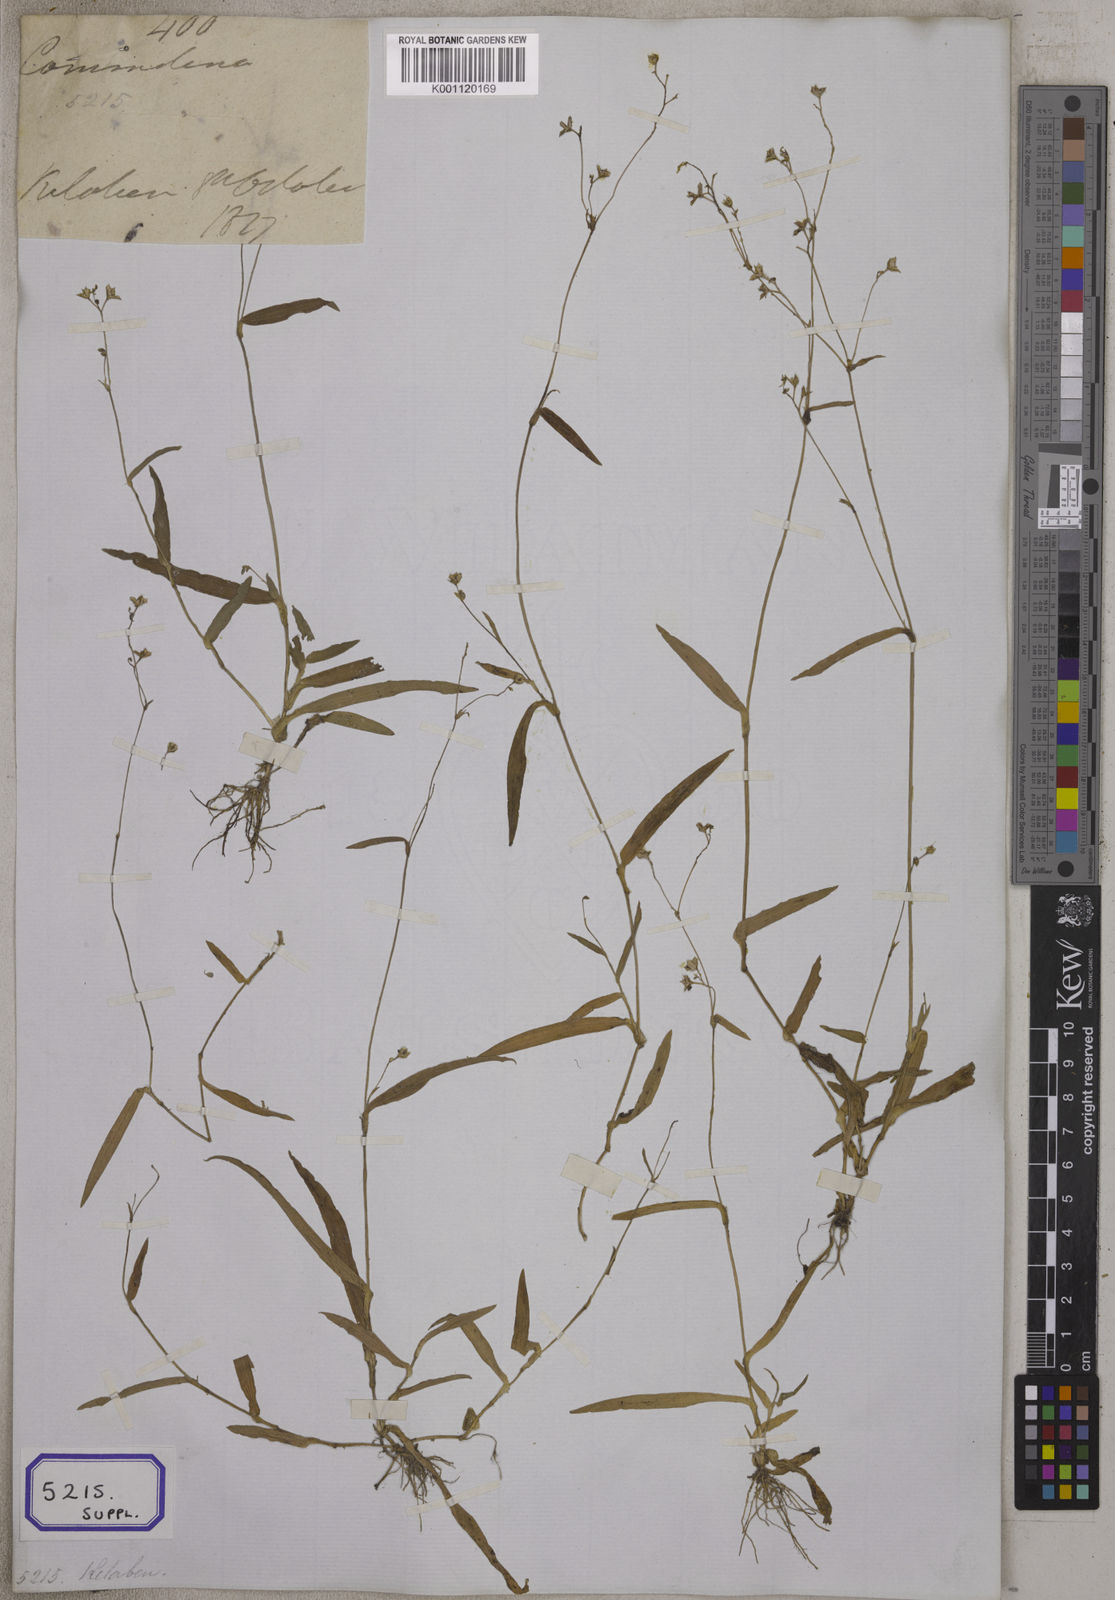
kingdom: Plantae
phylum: Tracheophyta
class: Liliopsida
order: Commelinales
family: Commelinaceae
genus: Murdannia
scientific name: Murdannia nudiflora
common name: Nakedstem dewflower
